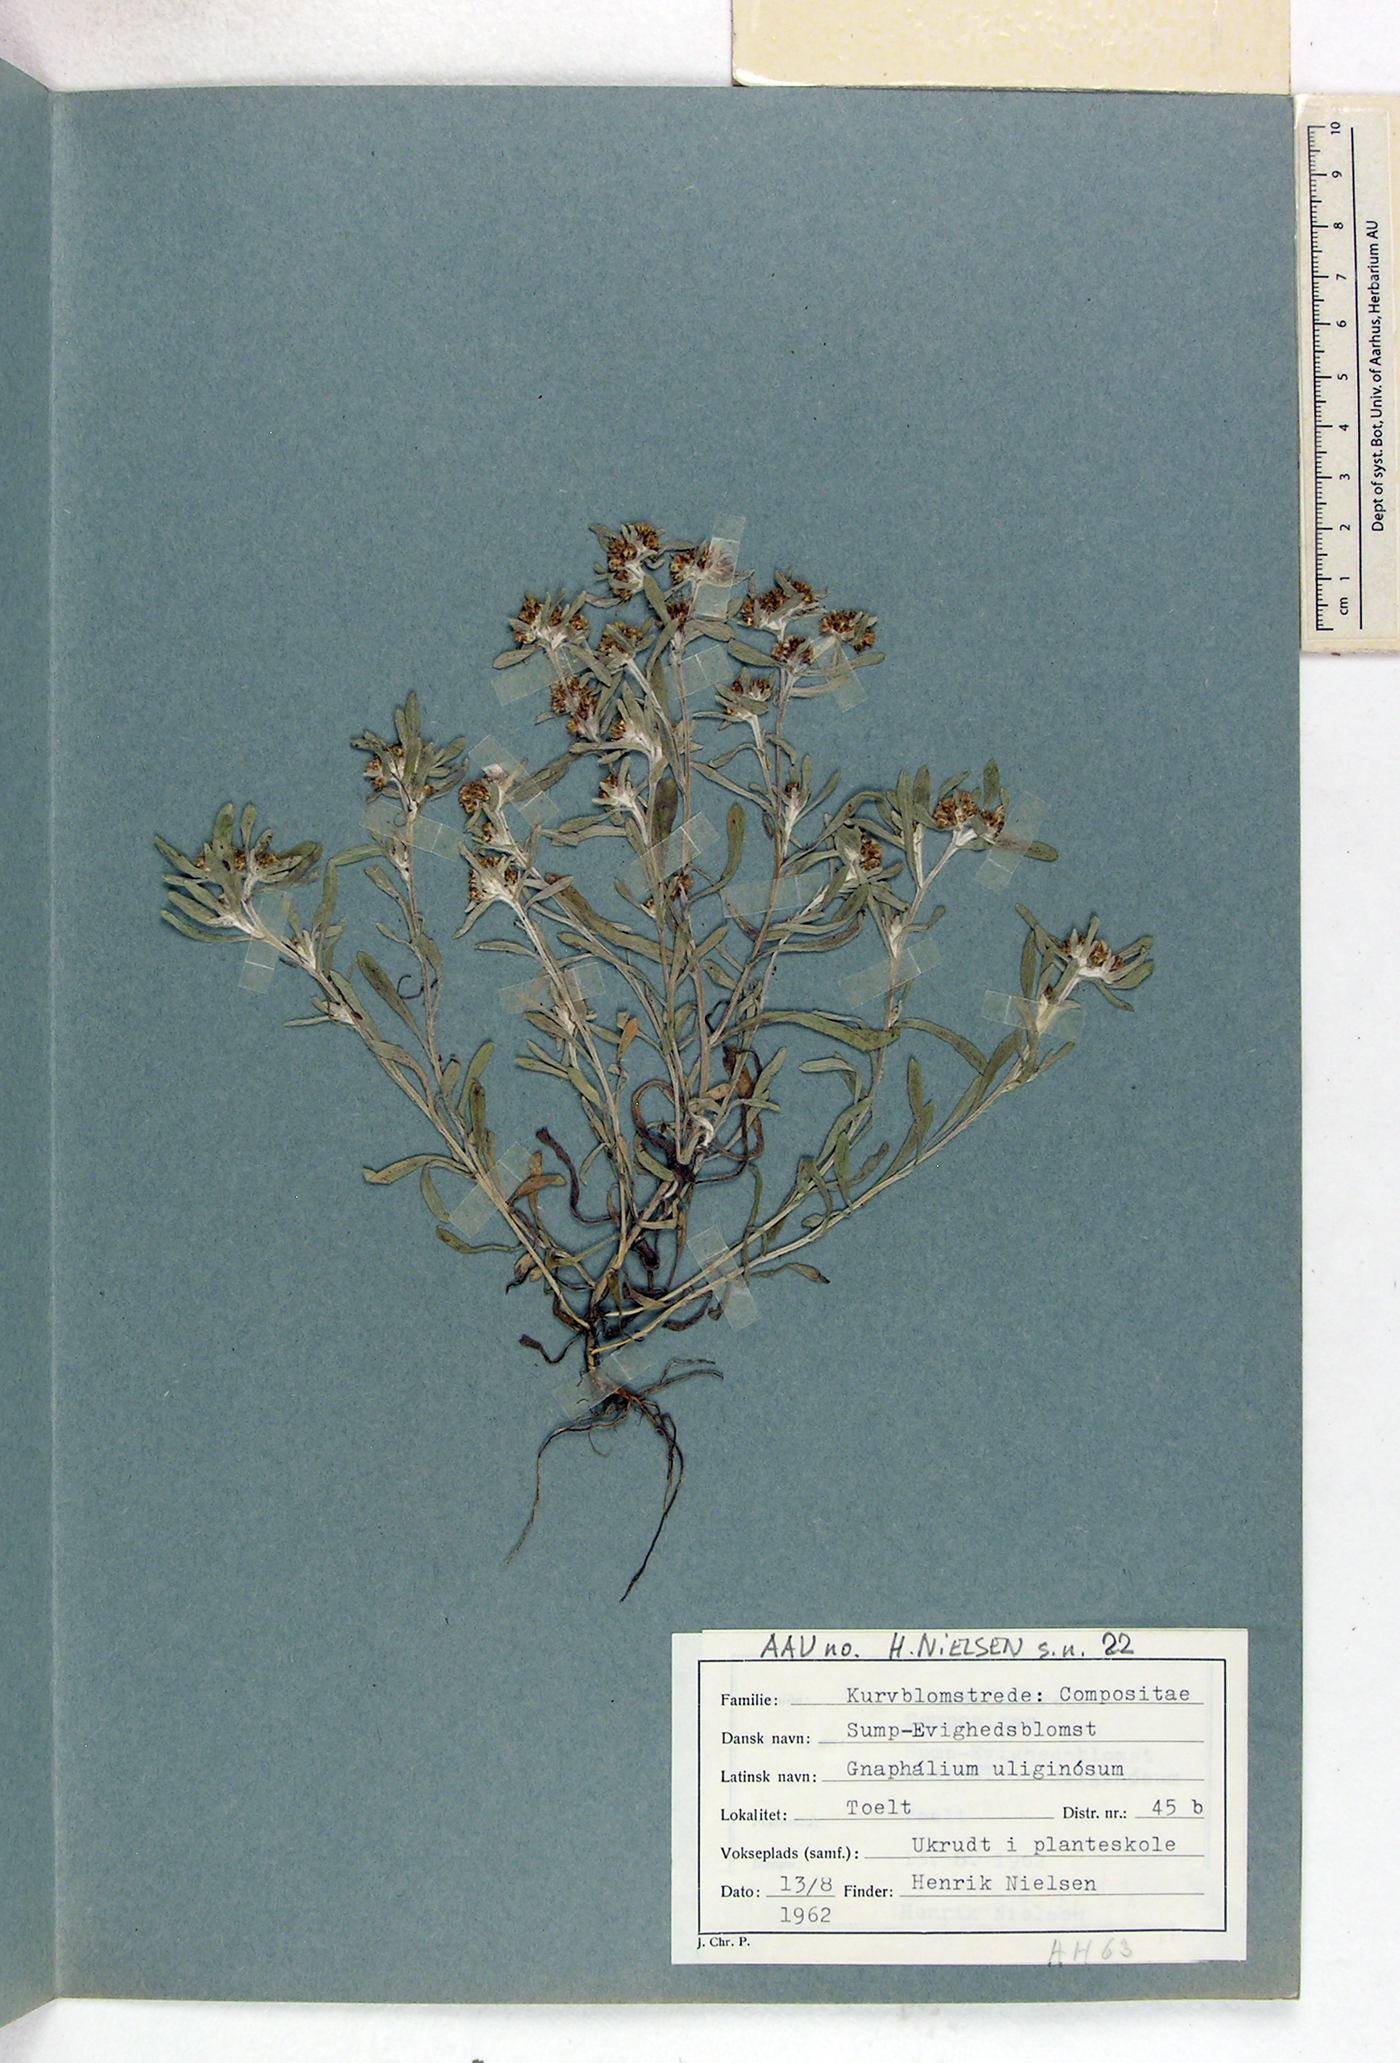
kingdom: Plantae
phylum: Tracheophyta
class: Magnoliopsida
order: Asterales
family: Asteraceae
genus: Gnaphalium
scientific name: Gnaphalium uliginosum
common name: Marsh cudweed
